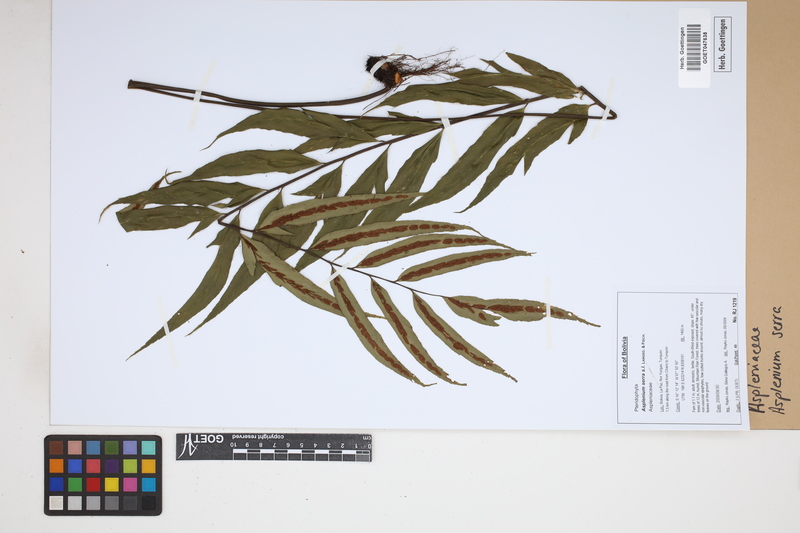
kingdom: Plantae
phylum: Tracheophyta
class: Polypodiopsida
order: Polypodiales
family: Aspleniaceae
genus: Asplenium
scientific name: Asplenium serra
